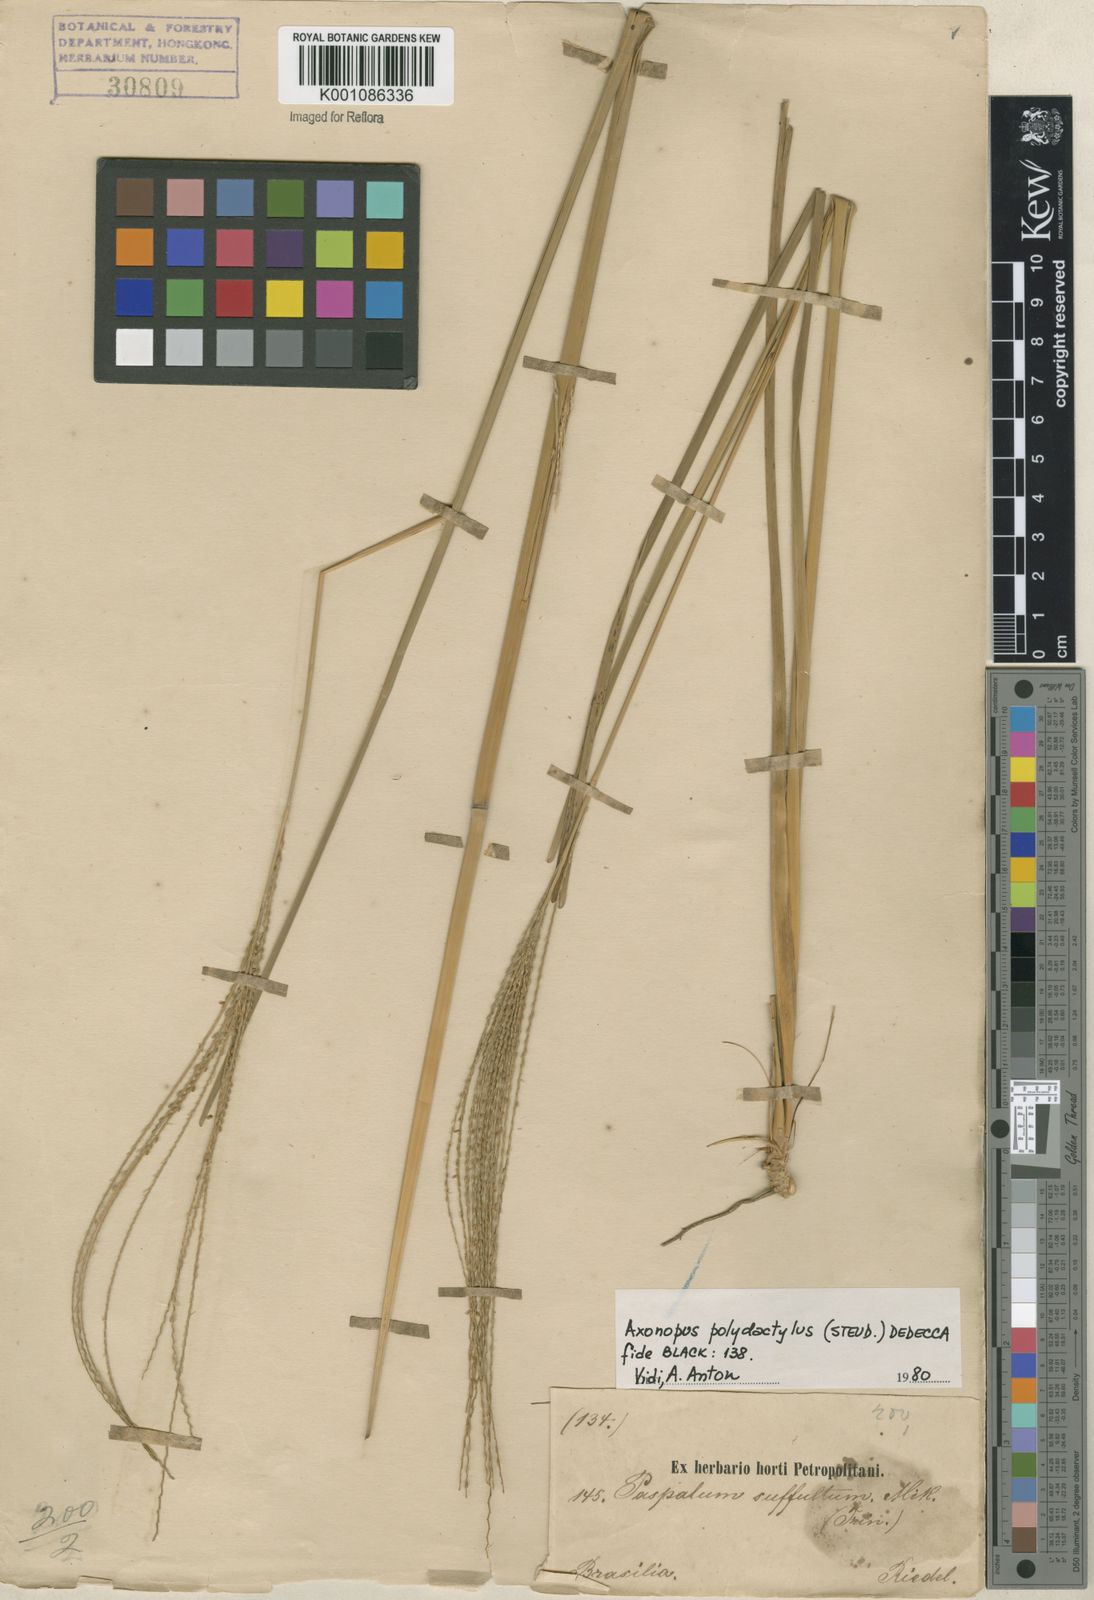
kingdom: Plantae
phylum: Tracheophyta
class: Liliopsida
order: Poales
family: Poaceae
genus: Axonopus
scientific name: Axonopus polydactylus
